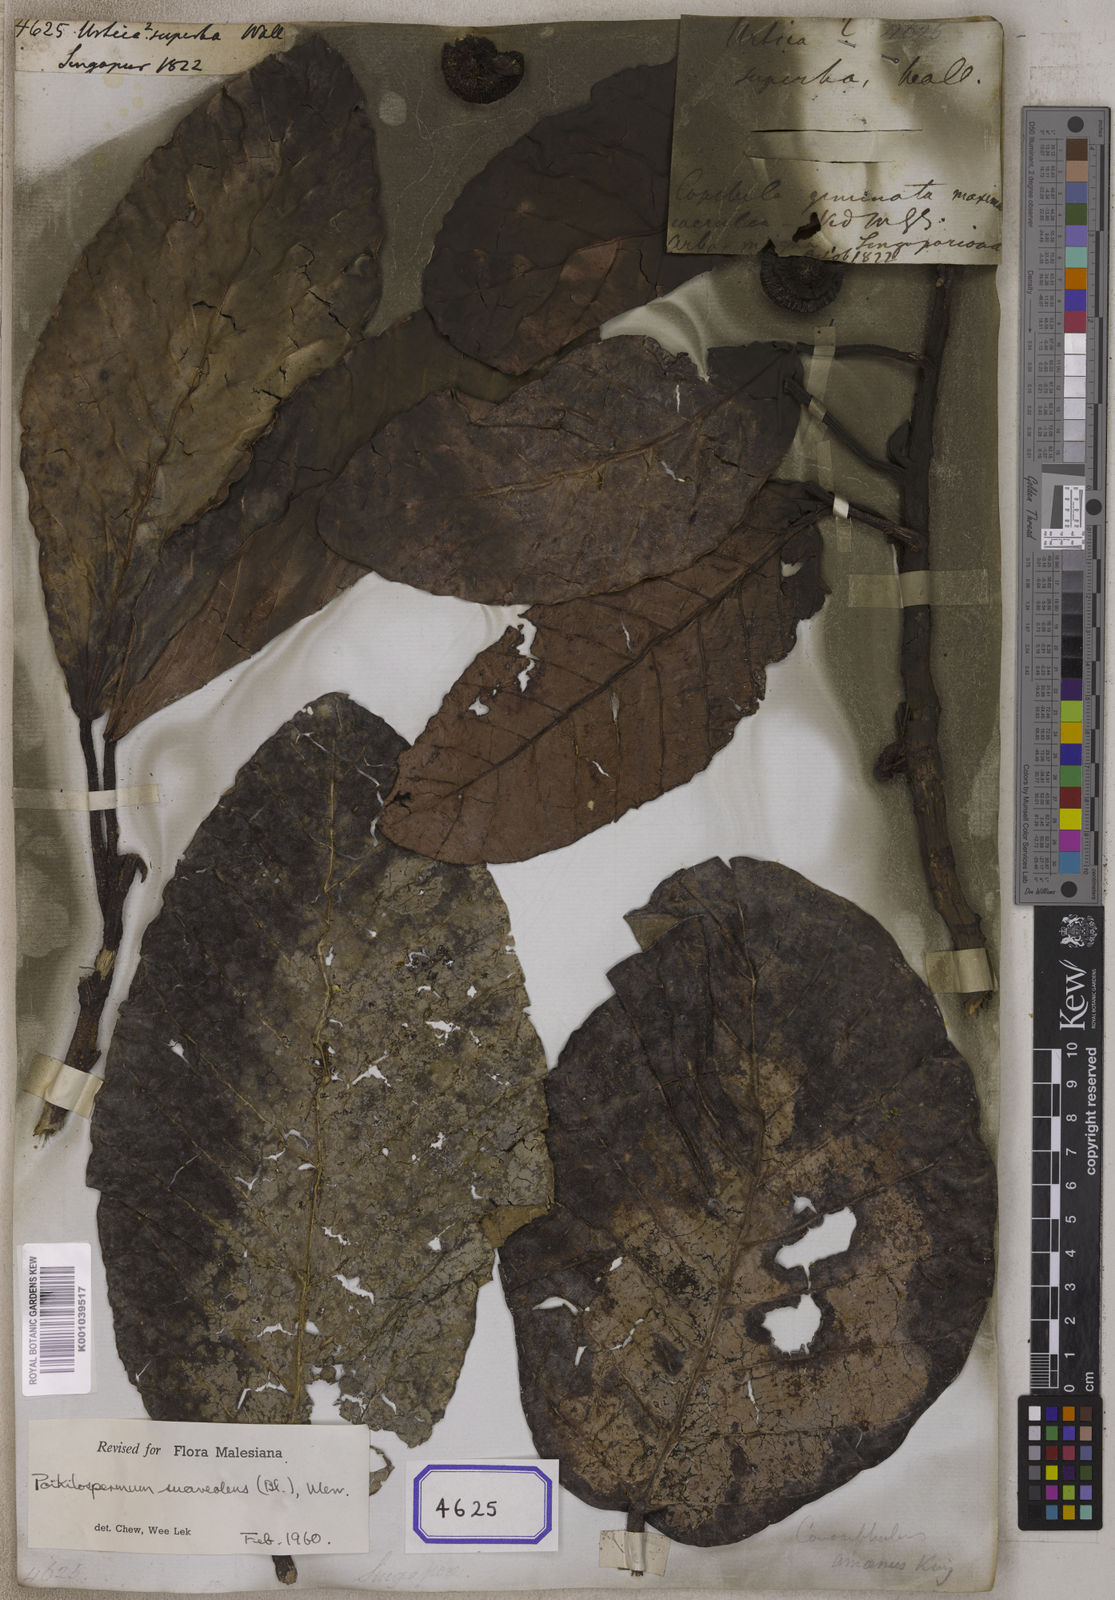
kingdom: Plantae
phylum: Tracheophyta
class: Magnoliopsida
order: Rosales
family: Urticaceae
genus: Urtica
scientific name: Urtica superba
